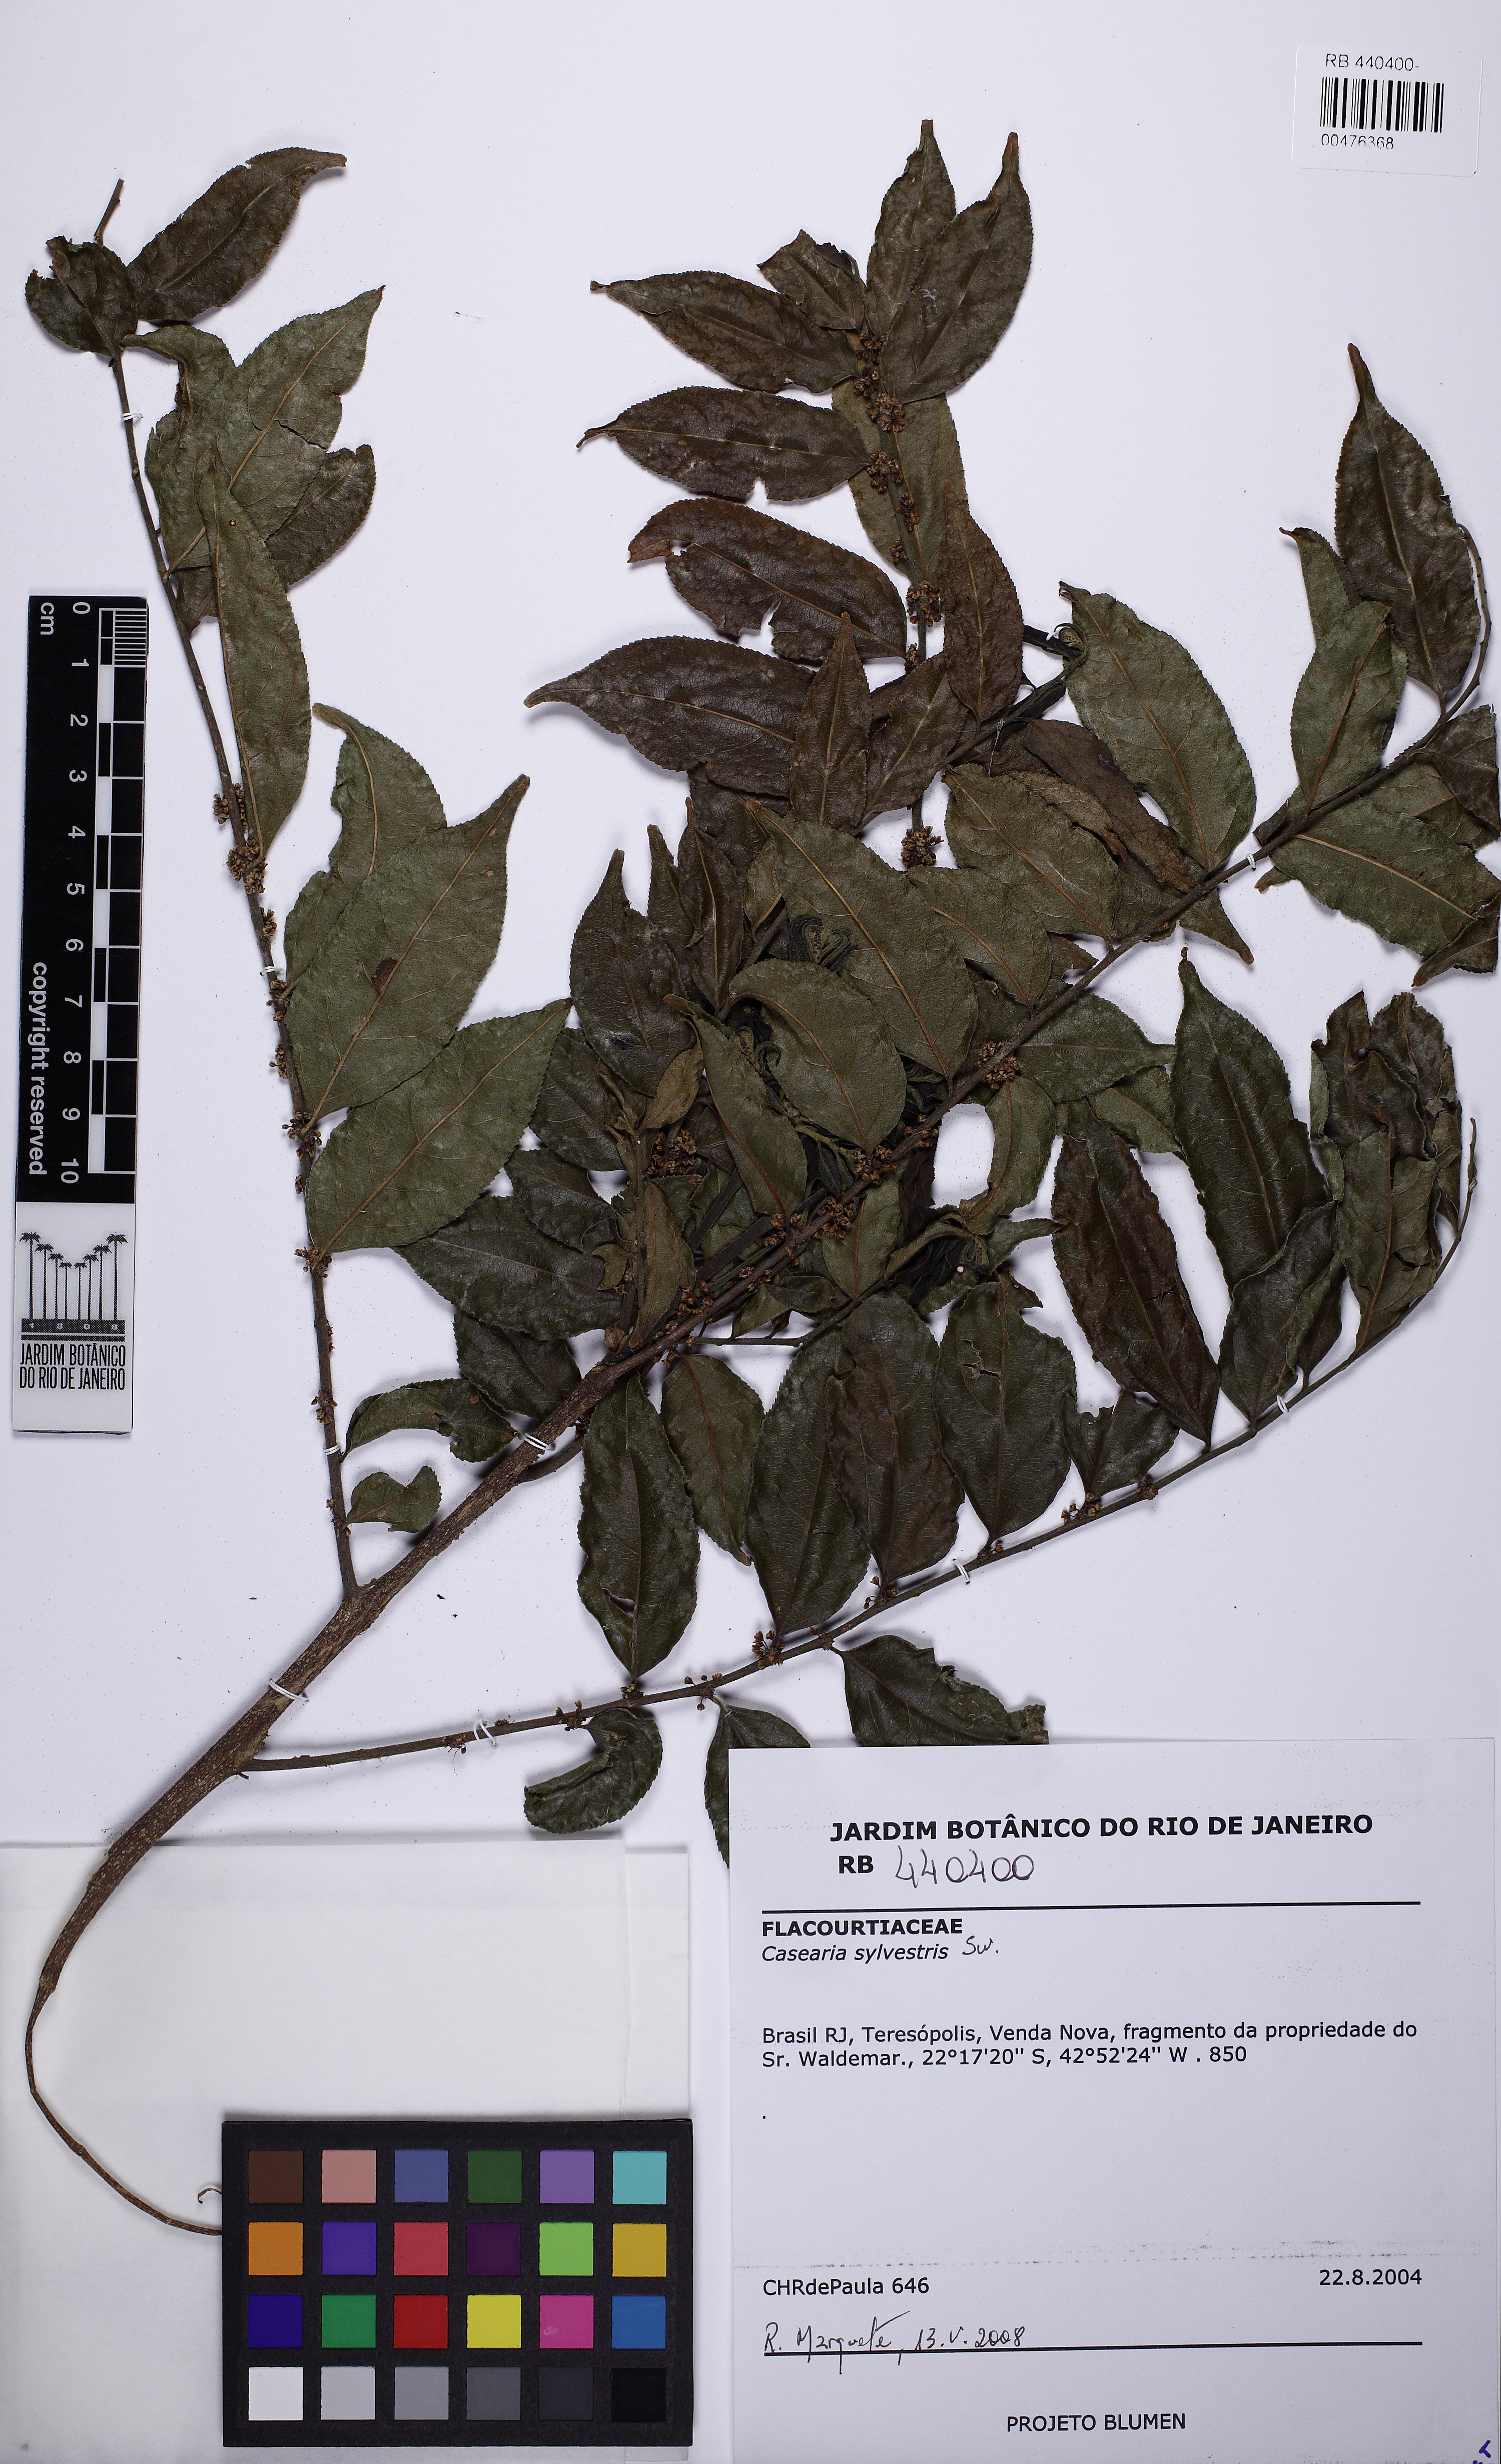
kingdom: Plantae
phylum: Tracheophyta
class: Magnoliopsida
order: Malpighiales
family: Salicaceae
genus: Casearia
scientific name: Casearia sylvestris
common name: Wild sage
